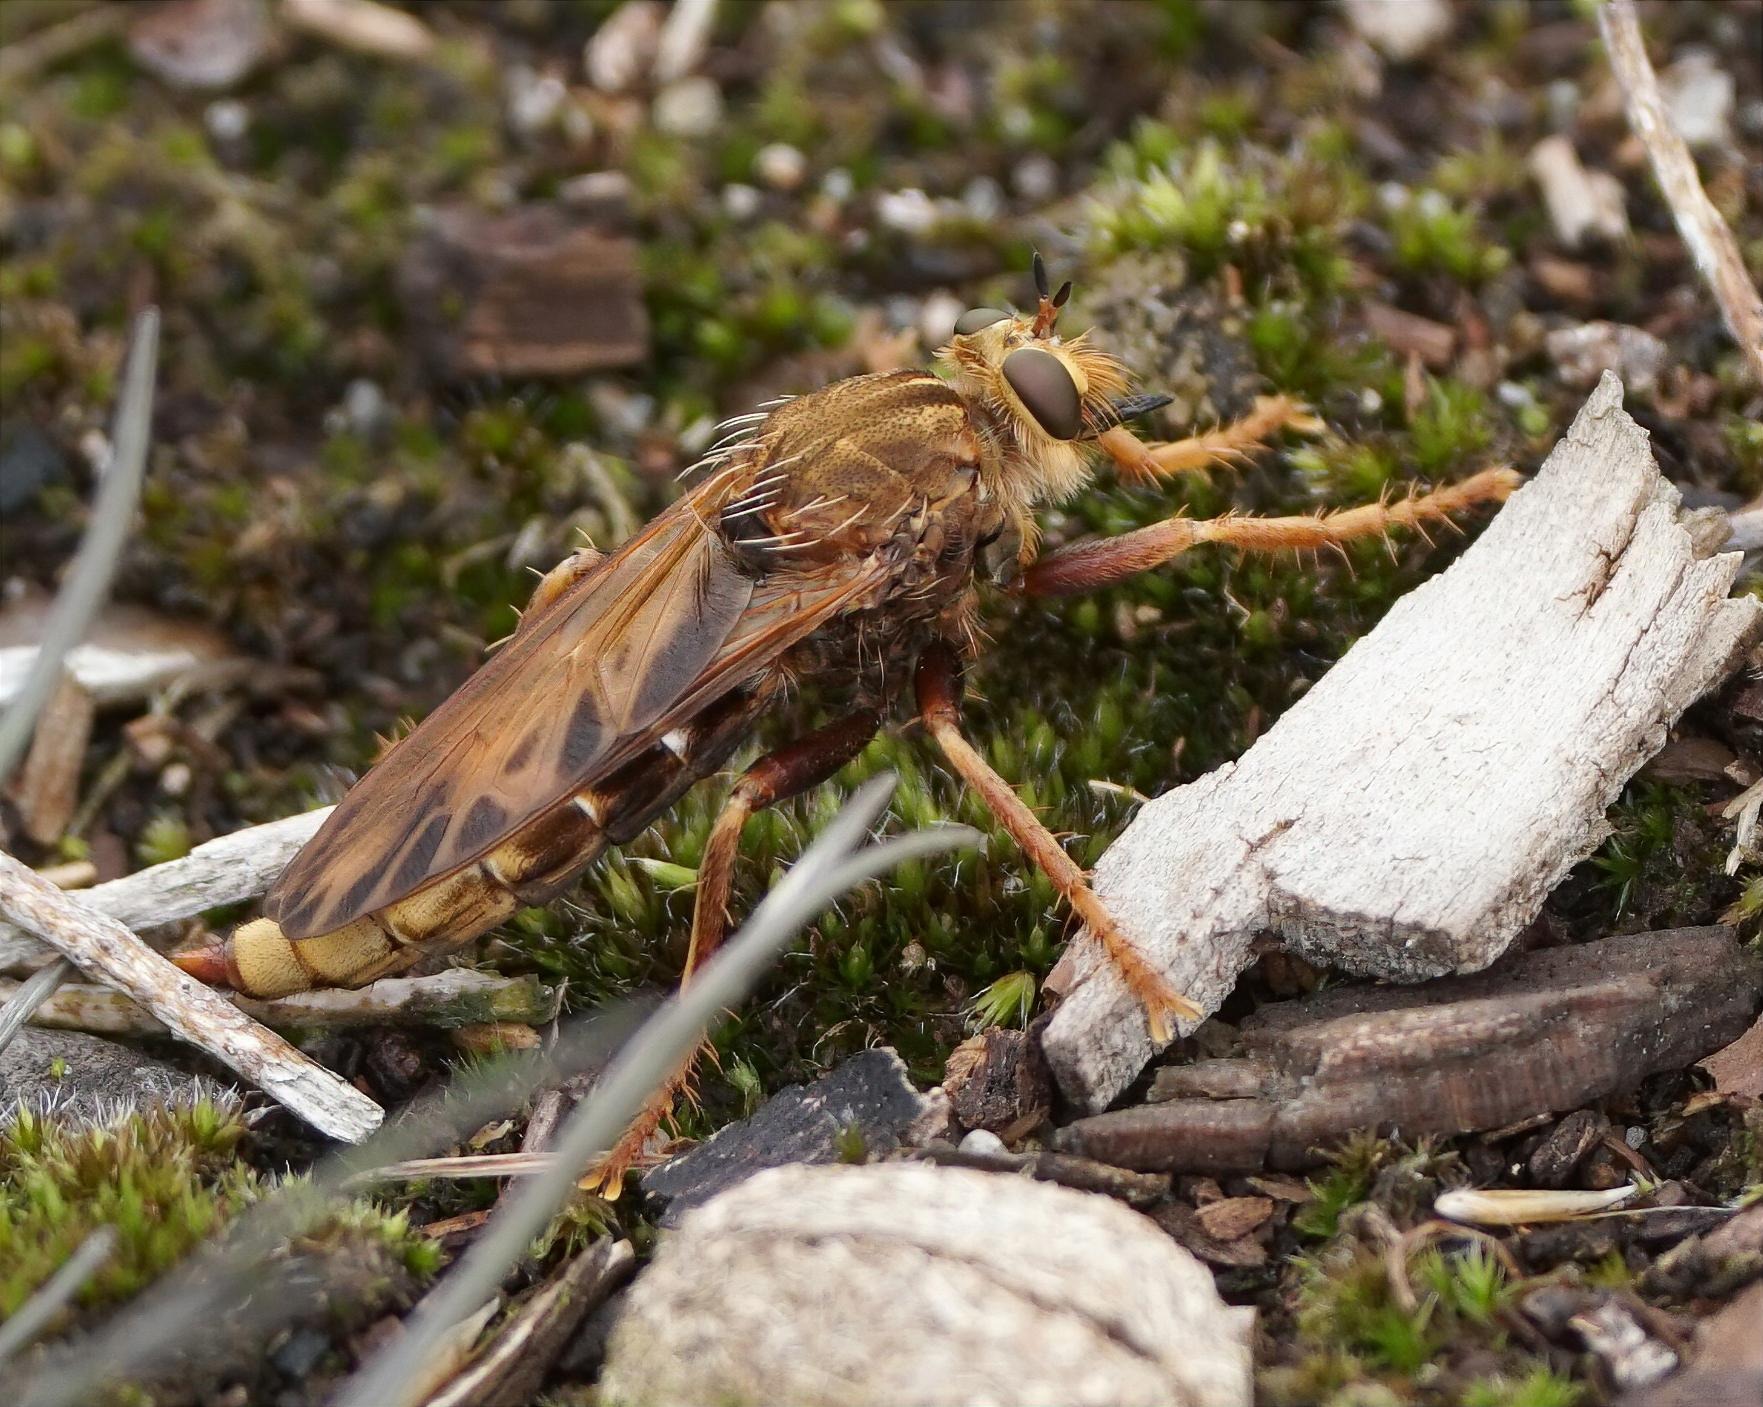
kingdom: Animalia
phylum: Arthropoda
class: Insecta
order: Diptera
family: Asilidae
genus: Asilus
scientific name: Asilus crabroniformis
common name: Stor gødningsrovflue
